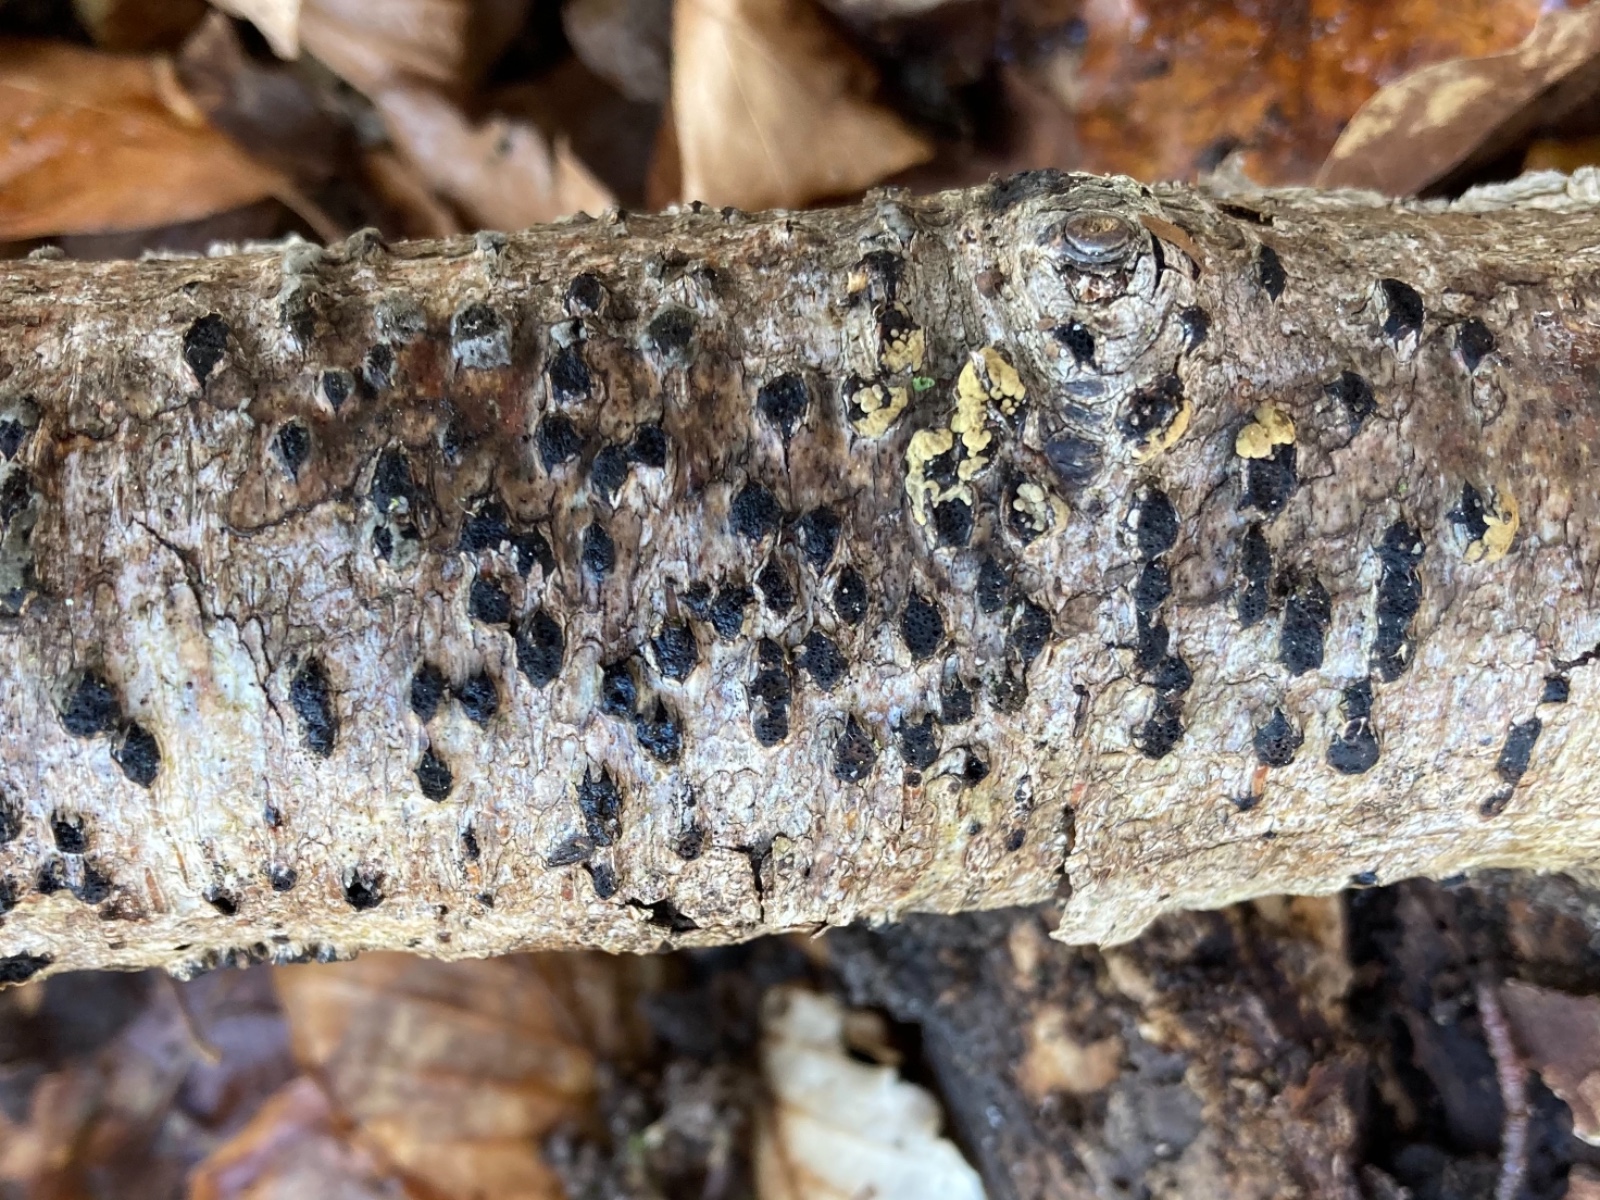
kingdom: Fungi
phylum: Ascomycota
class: Sordariomycetes
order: Xylariales
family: Diatrypaceae
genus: Diatrype
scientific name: Diatrype disciformis
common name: kant-kulskorpe
